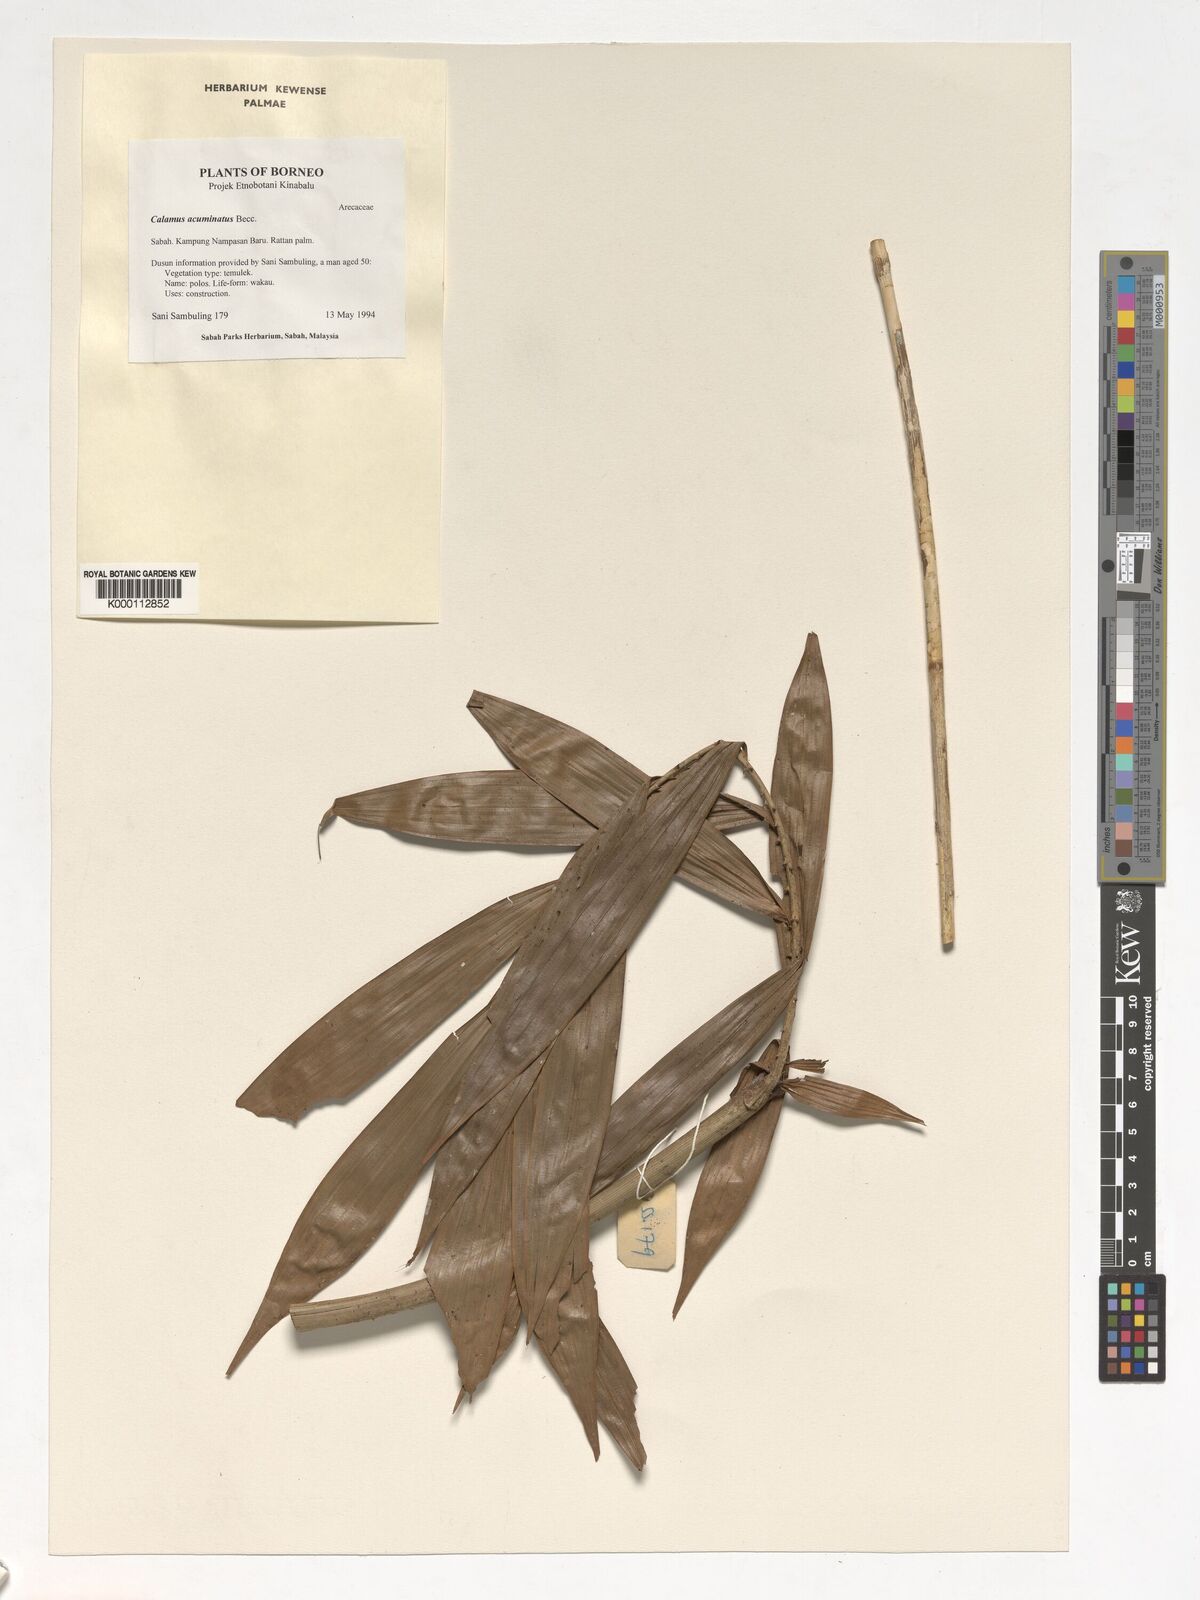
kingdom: Plantae
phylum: Tracheophyta
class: Liliopsida
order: Arecales
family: Arecaceae
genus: Calamus
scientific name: Calamus javensis
